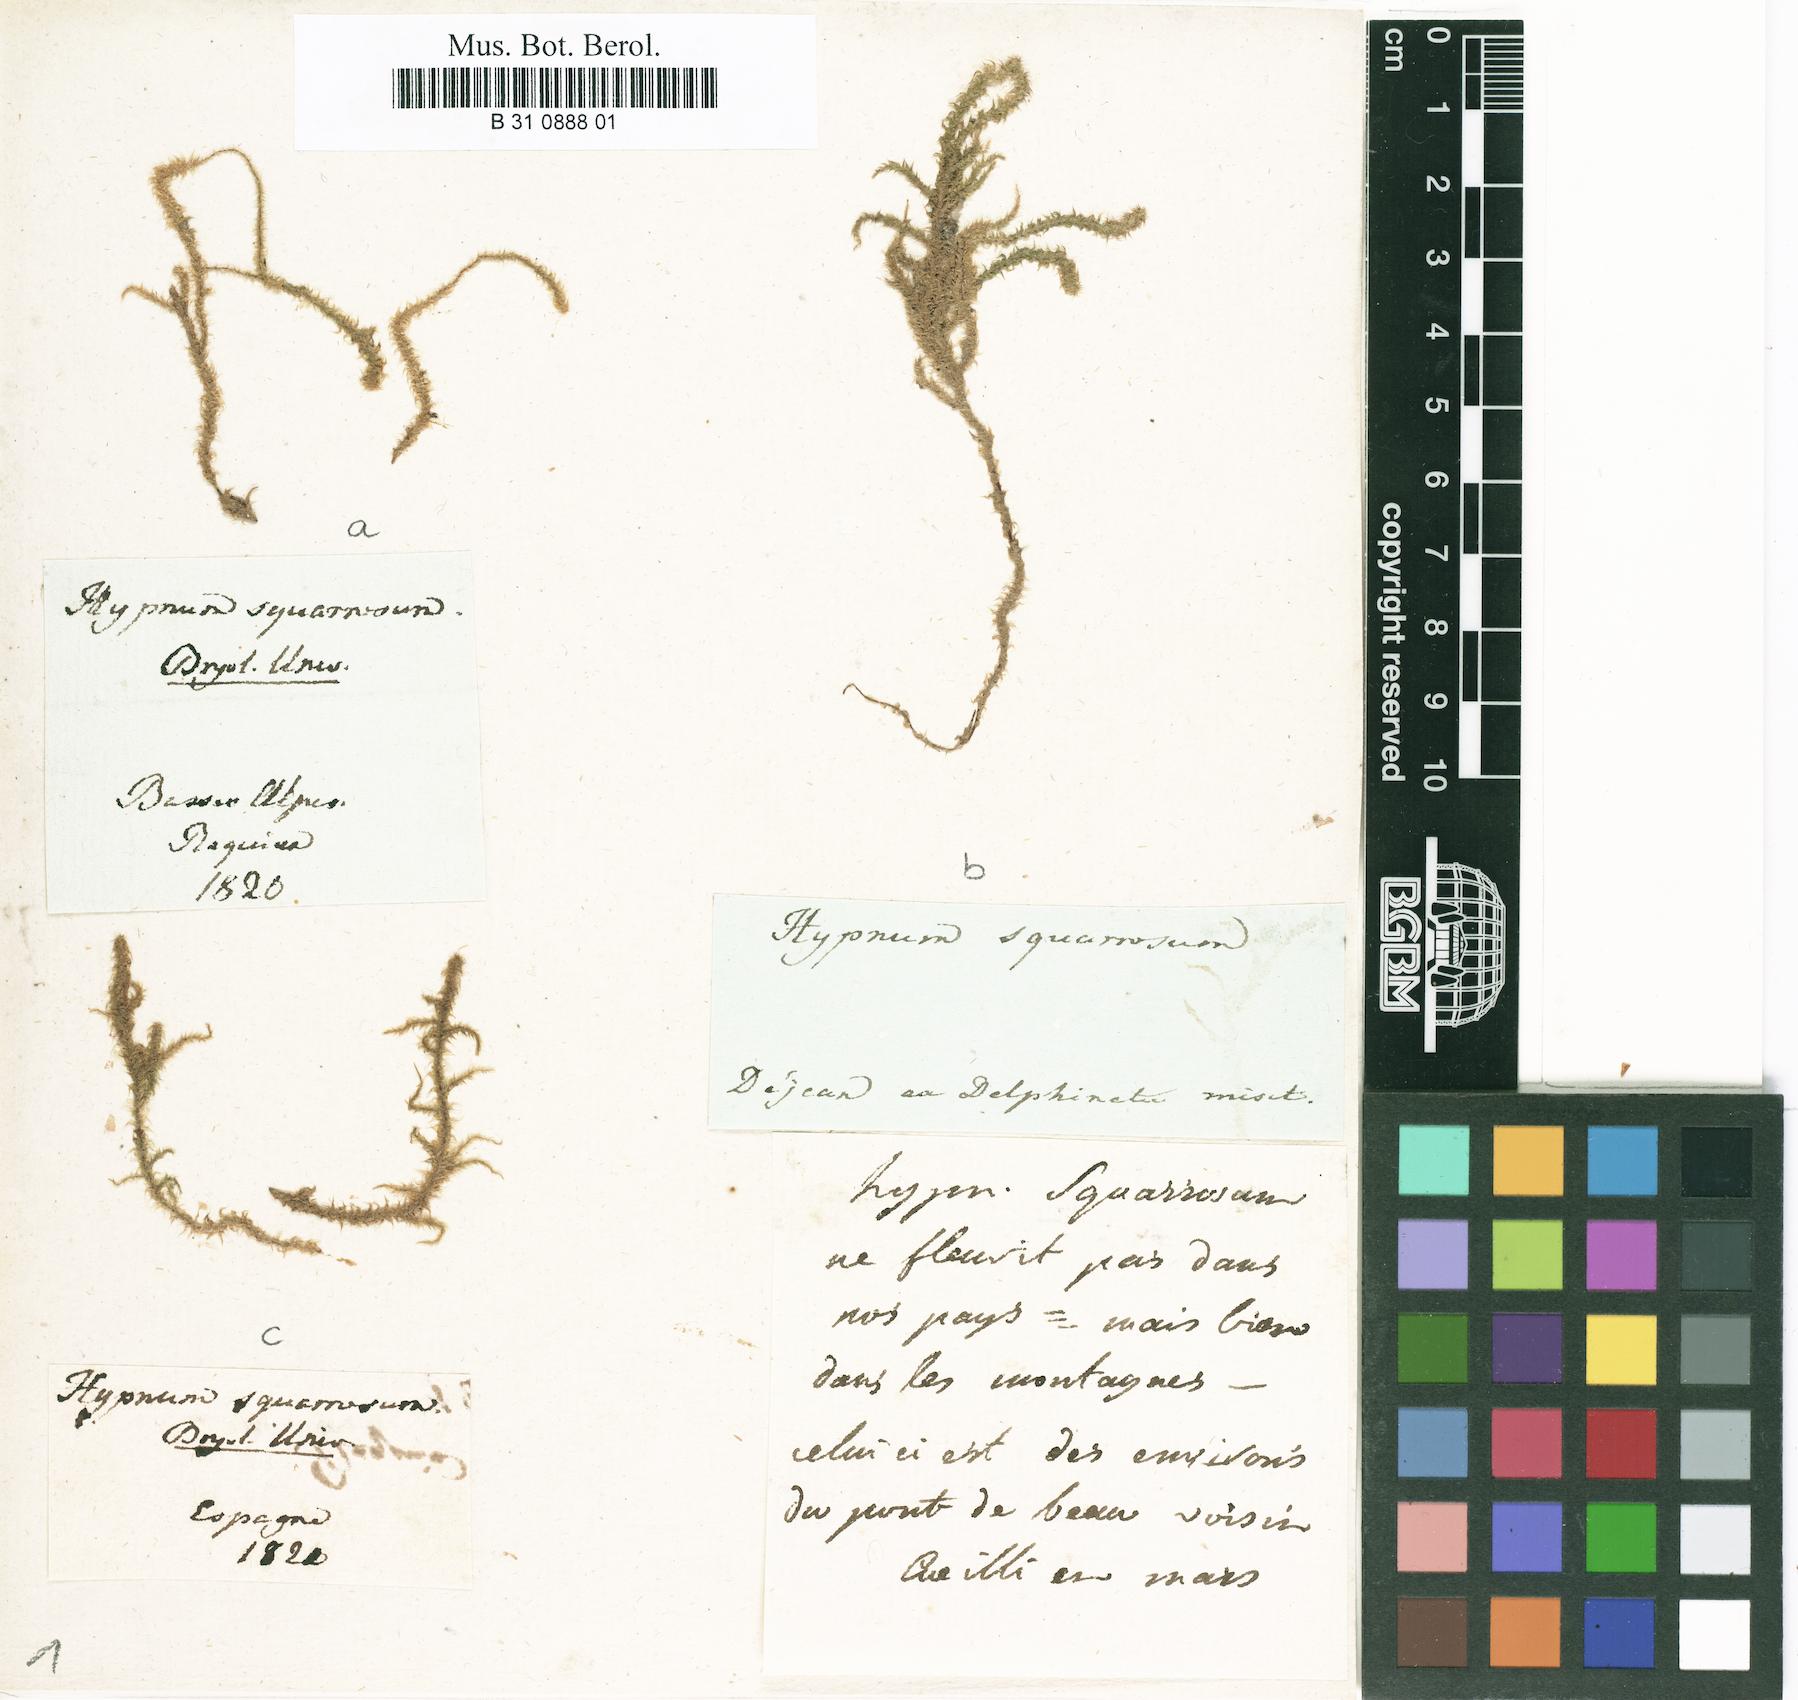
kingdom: Plantae
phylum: Bryophyta
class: Bryopsida
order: Hypnales
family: Hylocomiaceae
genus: Rhytidiadelphus
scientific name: Rhytidiadelphus squarrosus
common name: Springy turf-moss
